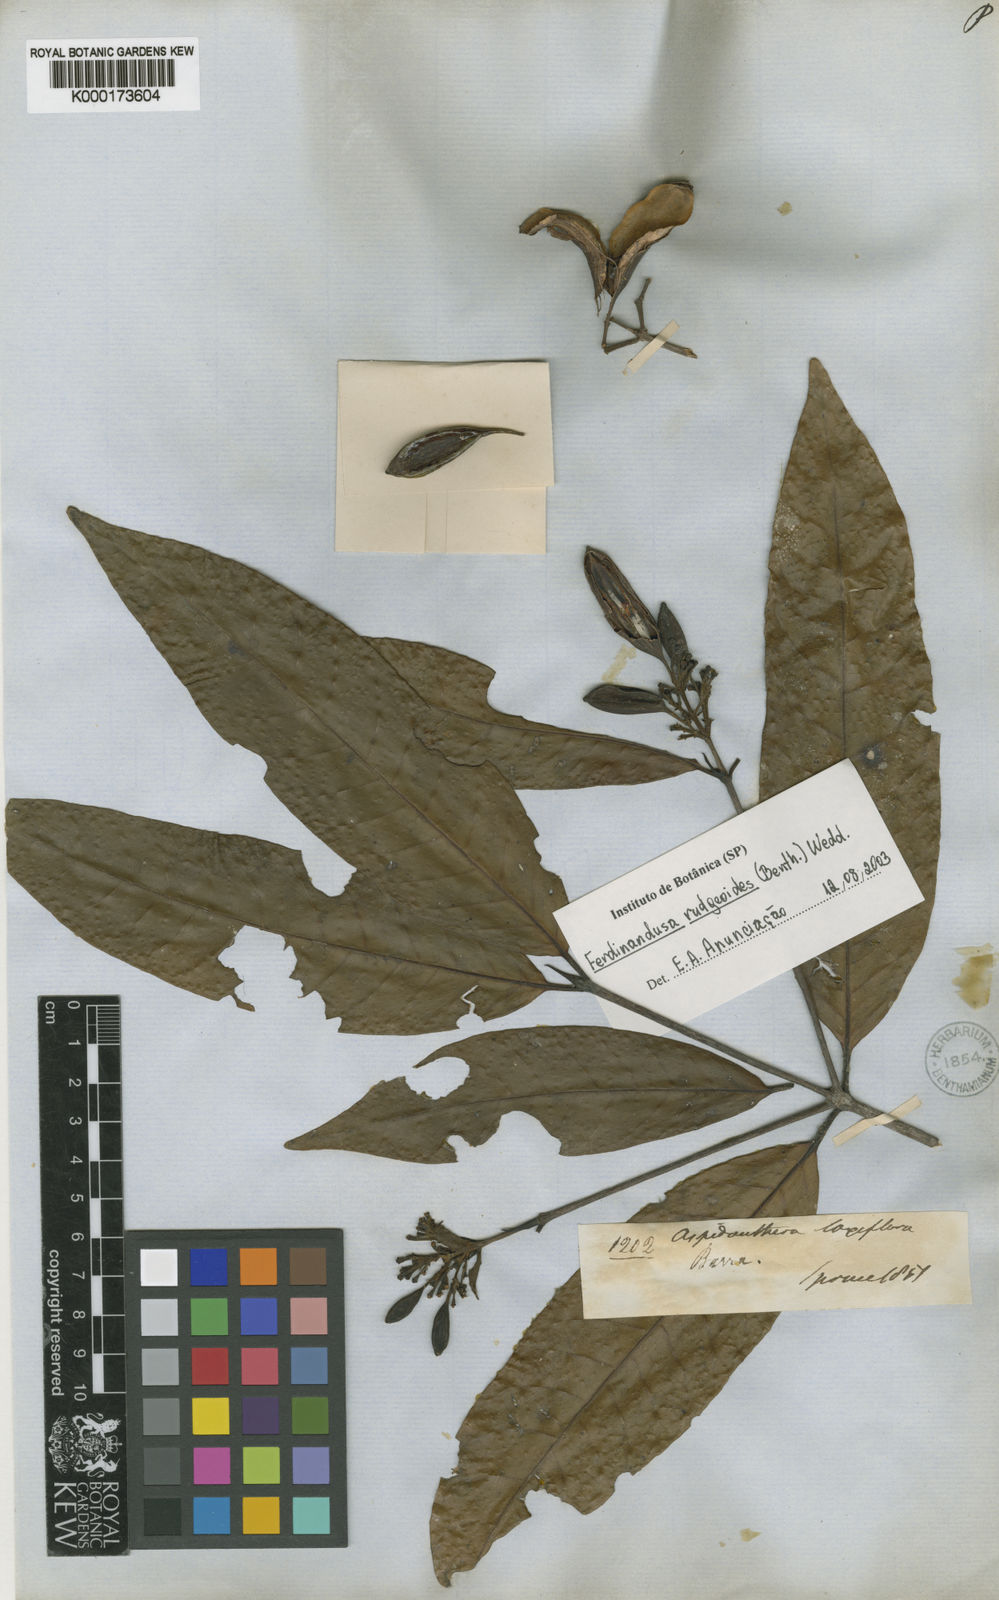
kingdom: Plantae
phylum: Tracheophyta
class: Magnoliopsida
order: Gentianales
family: Rubiaceae
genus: Ferdinandusa
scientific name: Ferdinandusa rudgeoides
